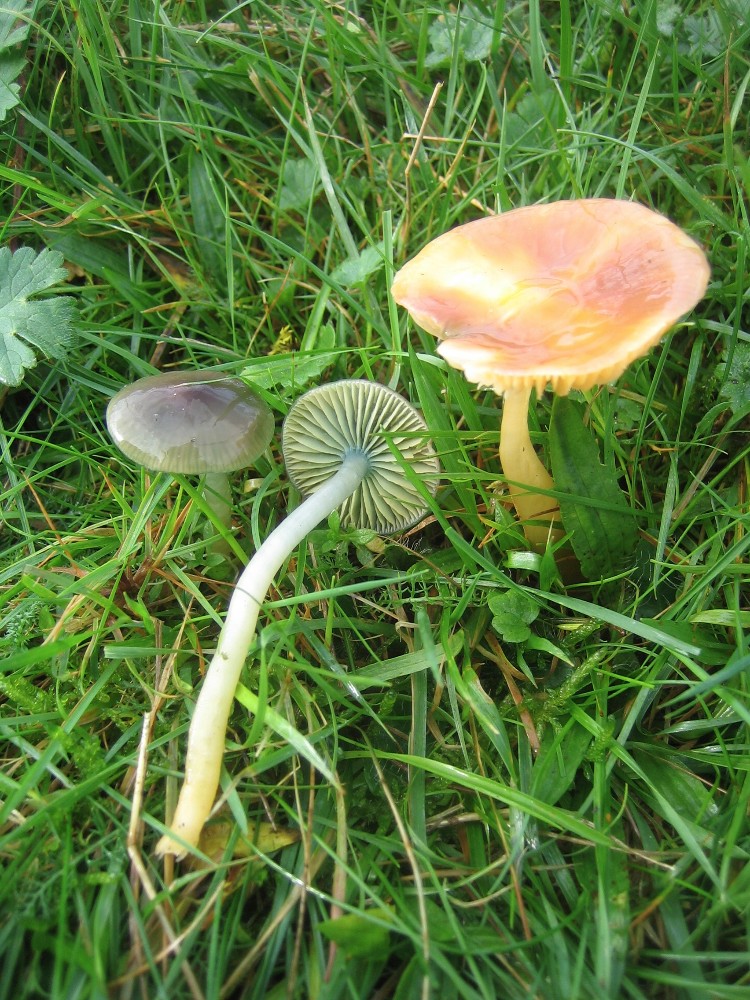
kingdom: Fungi
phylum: Basidiomycota
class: Agaricomycetes
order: Agaricales
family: Hygrophoraceae
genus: Gliophorus
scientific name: Gliophorus psittacinus
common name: papegøje-vokshat
